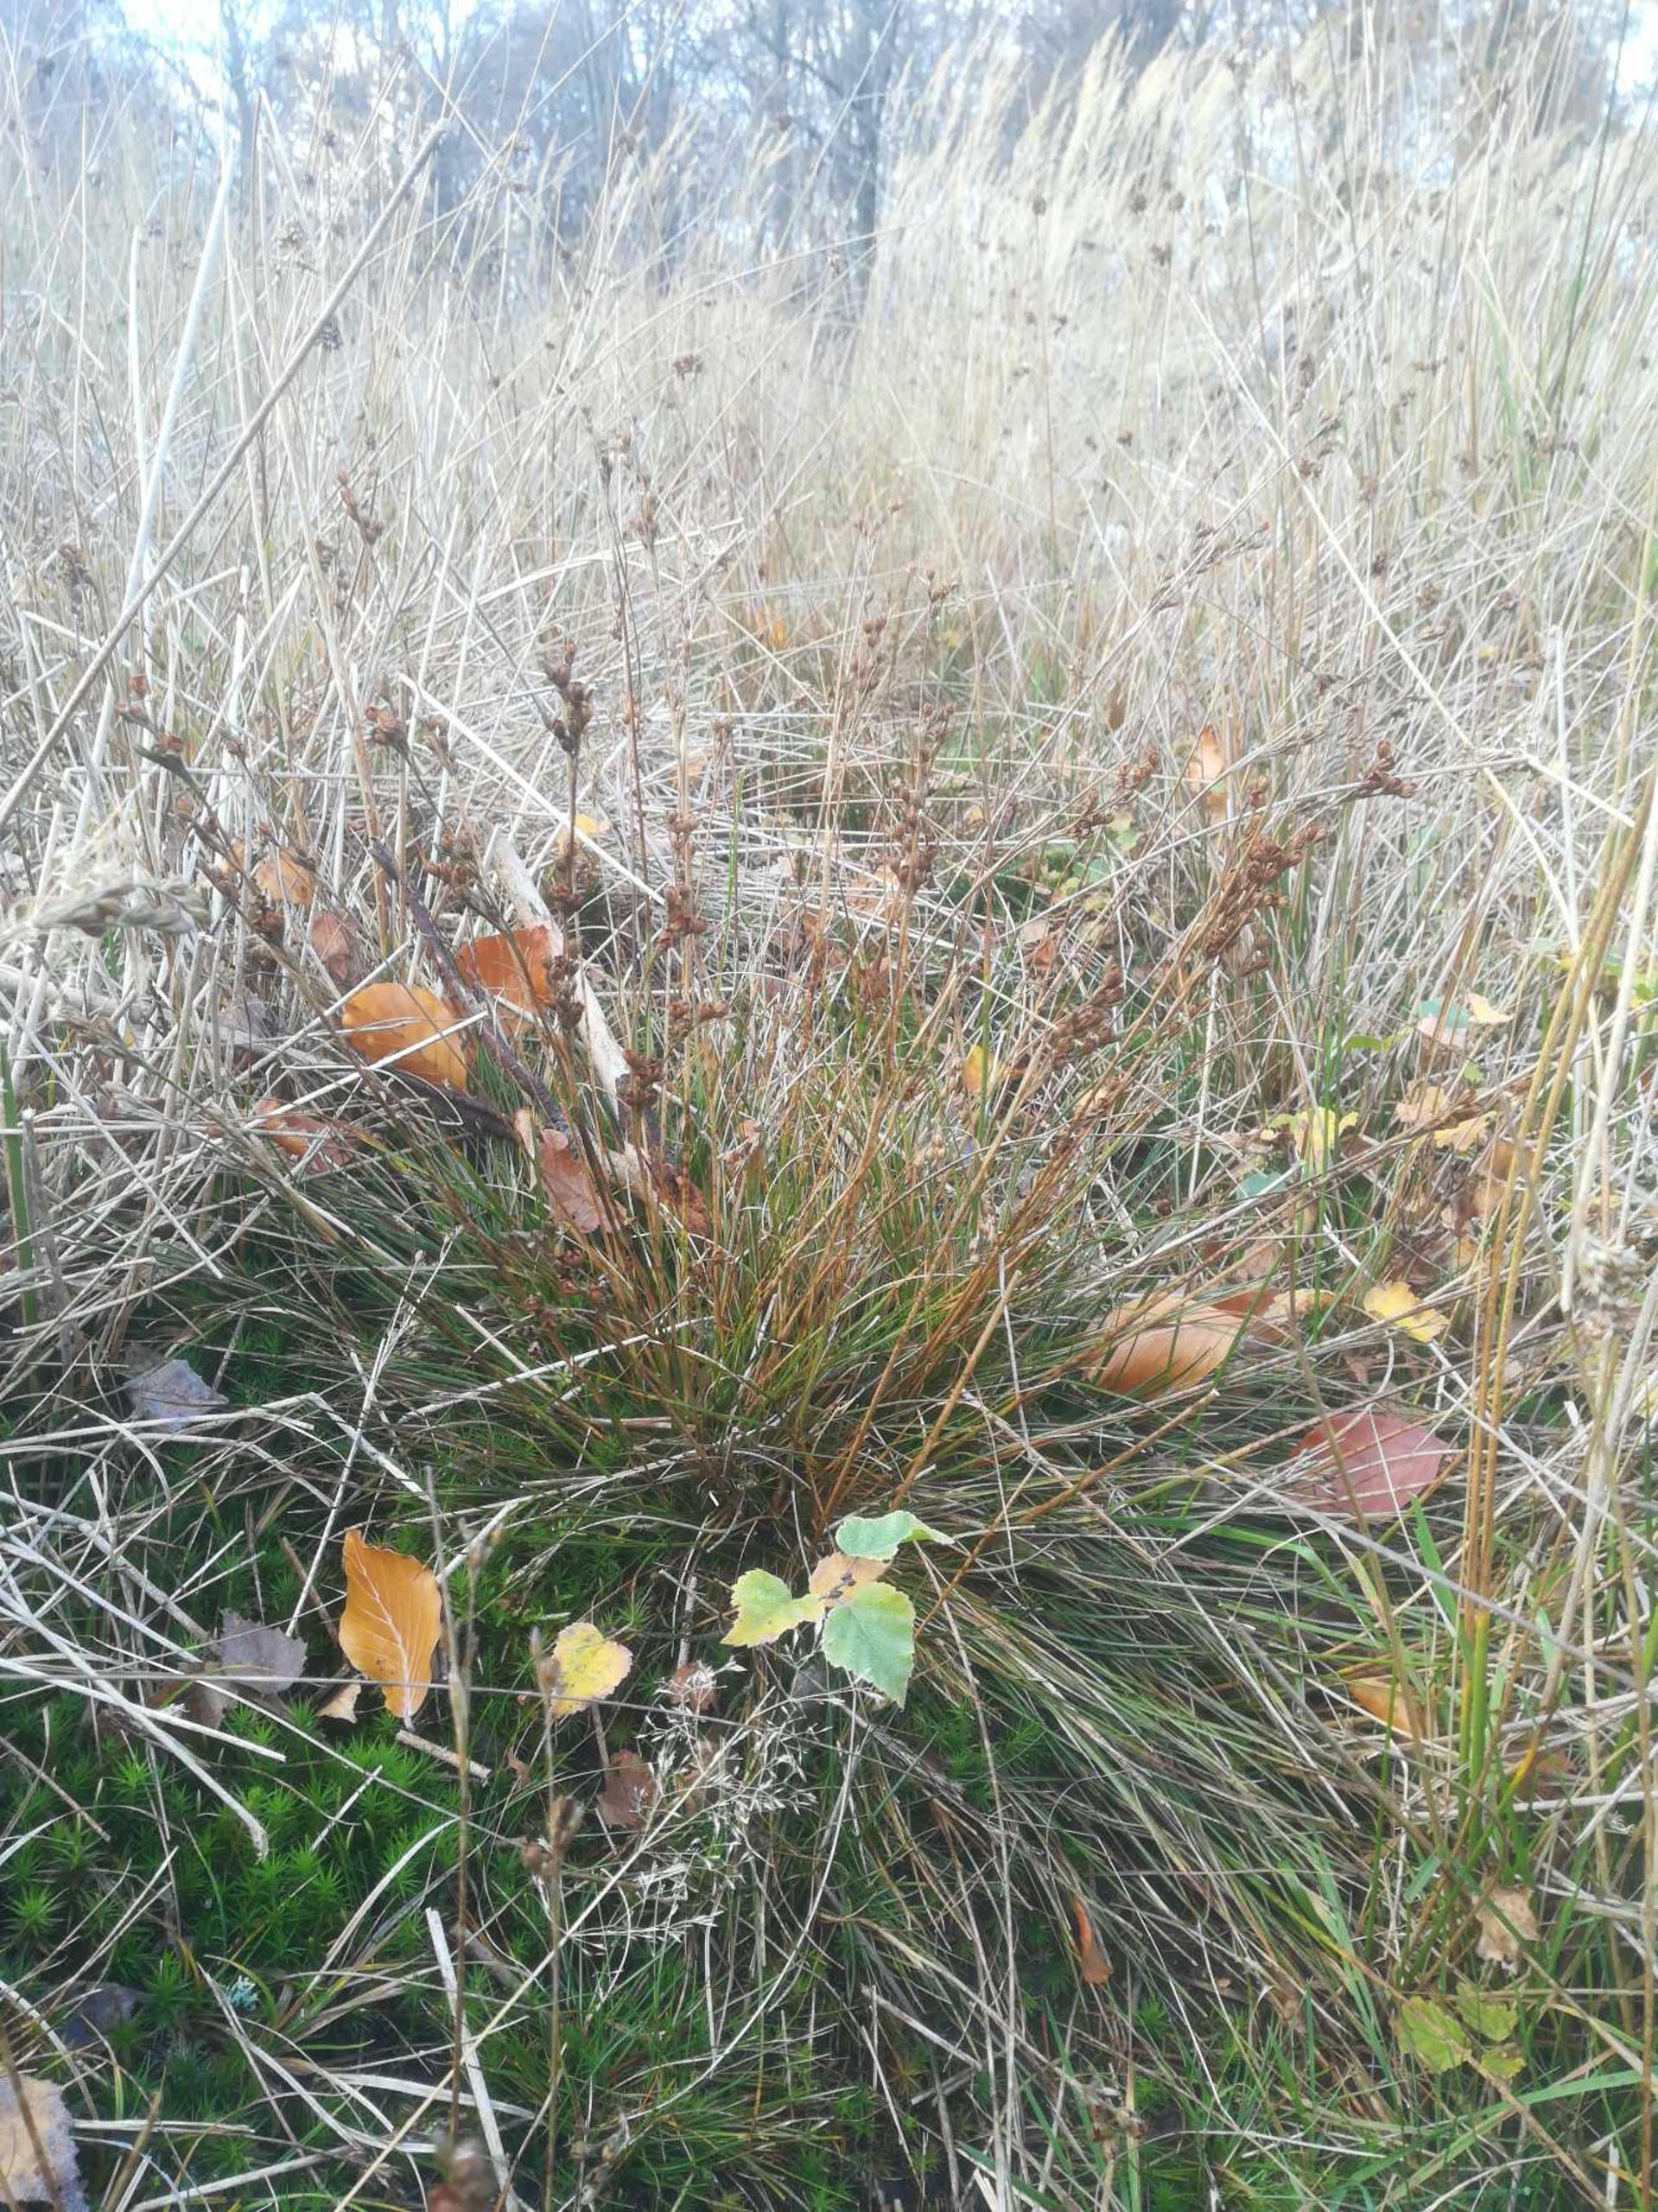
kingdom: Plantae
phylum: Tracheophyta
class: Liliopsida
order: Poales
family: Juncaceae
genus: Juncus
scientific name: Juncus squarrosus
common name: Børste-siv
